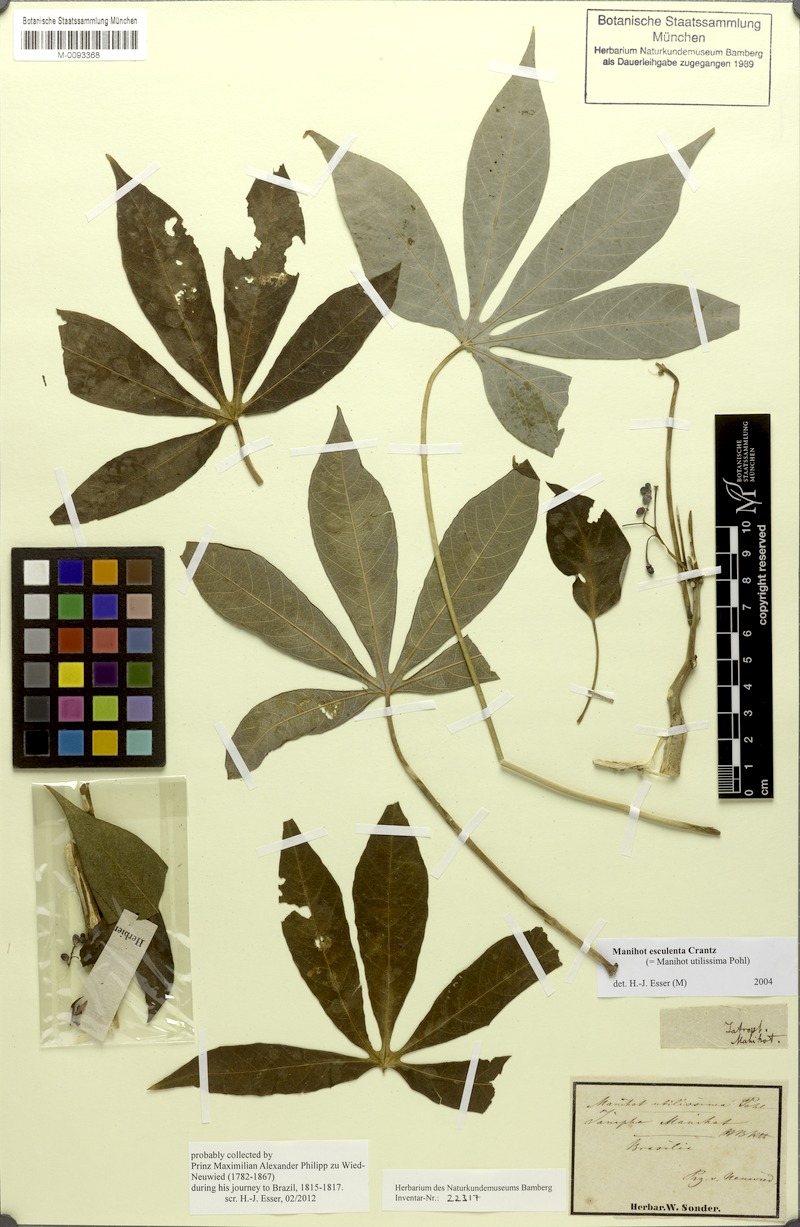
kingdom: Plantae
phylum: Tracheophyta
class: Magnoliopsida
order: Malpighiales
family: Euphorbiaceae
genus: Manihot
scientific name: Manihot esculenta
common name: Cassava
